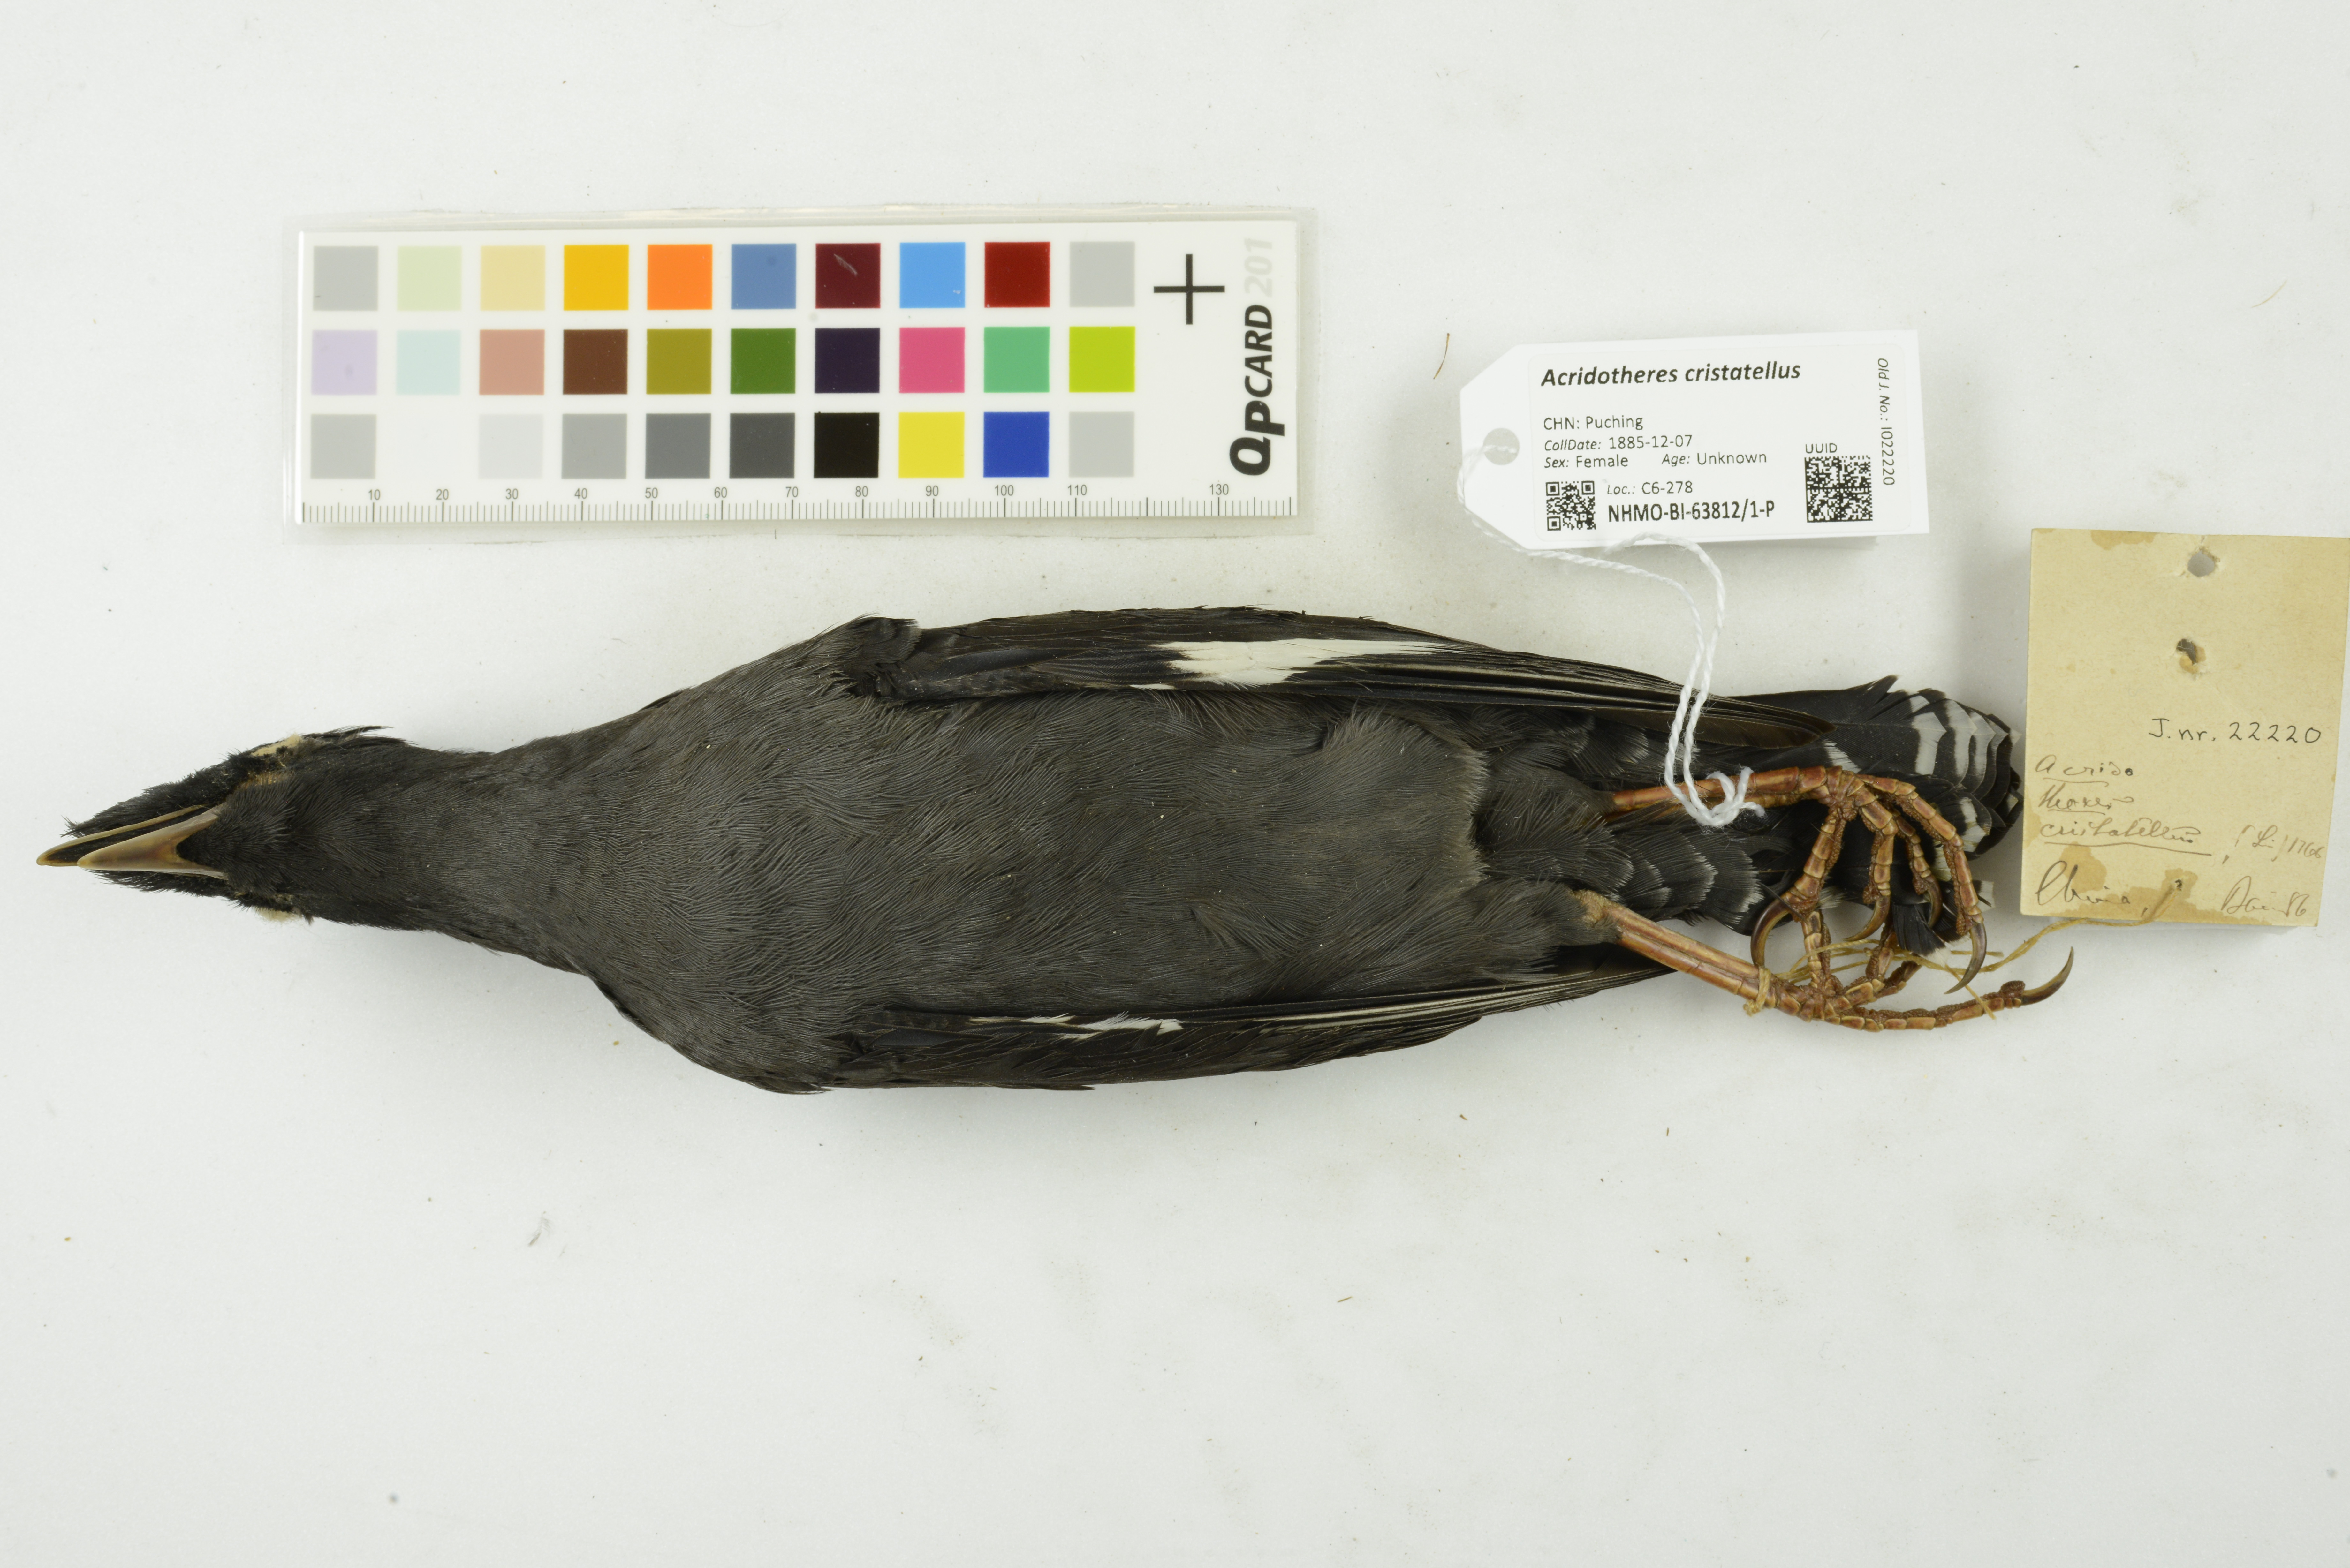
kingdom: Animalia
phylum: Chordata
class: Aves
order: Passeriformes
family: Sturnidae
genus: Acridotheres
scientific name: Acridotheres cristatellus
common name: Crested myna
